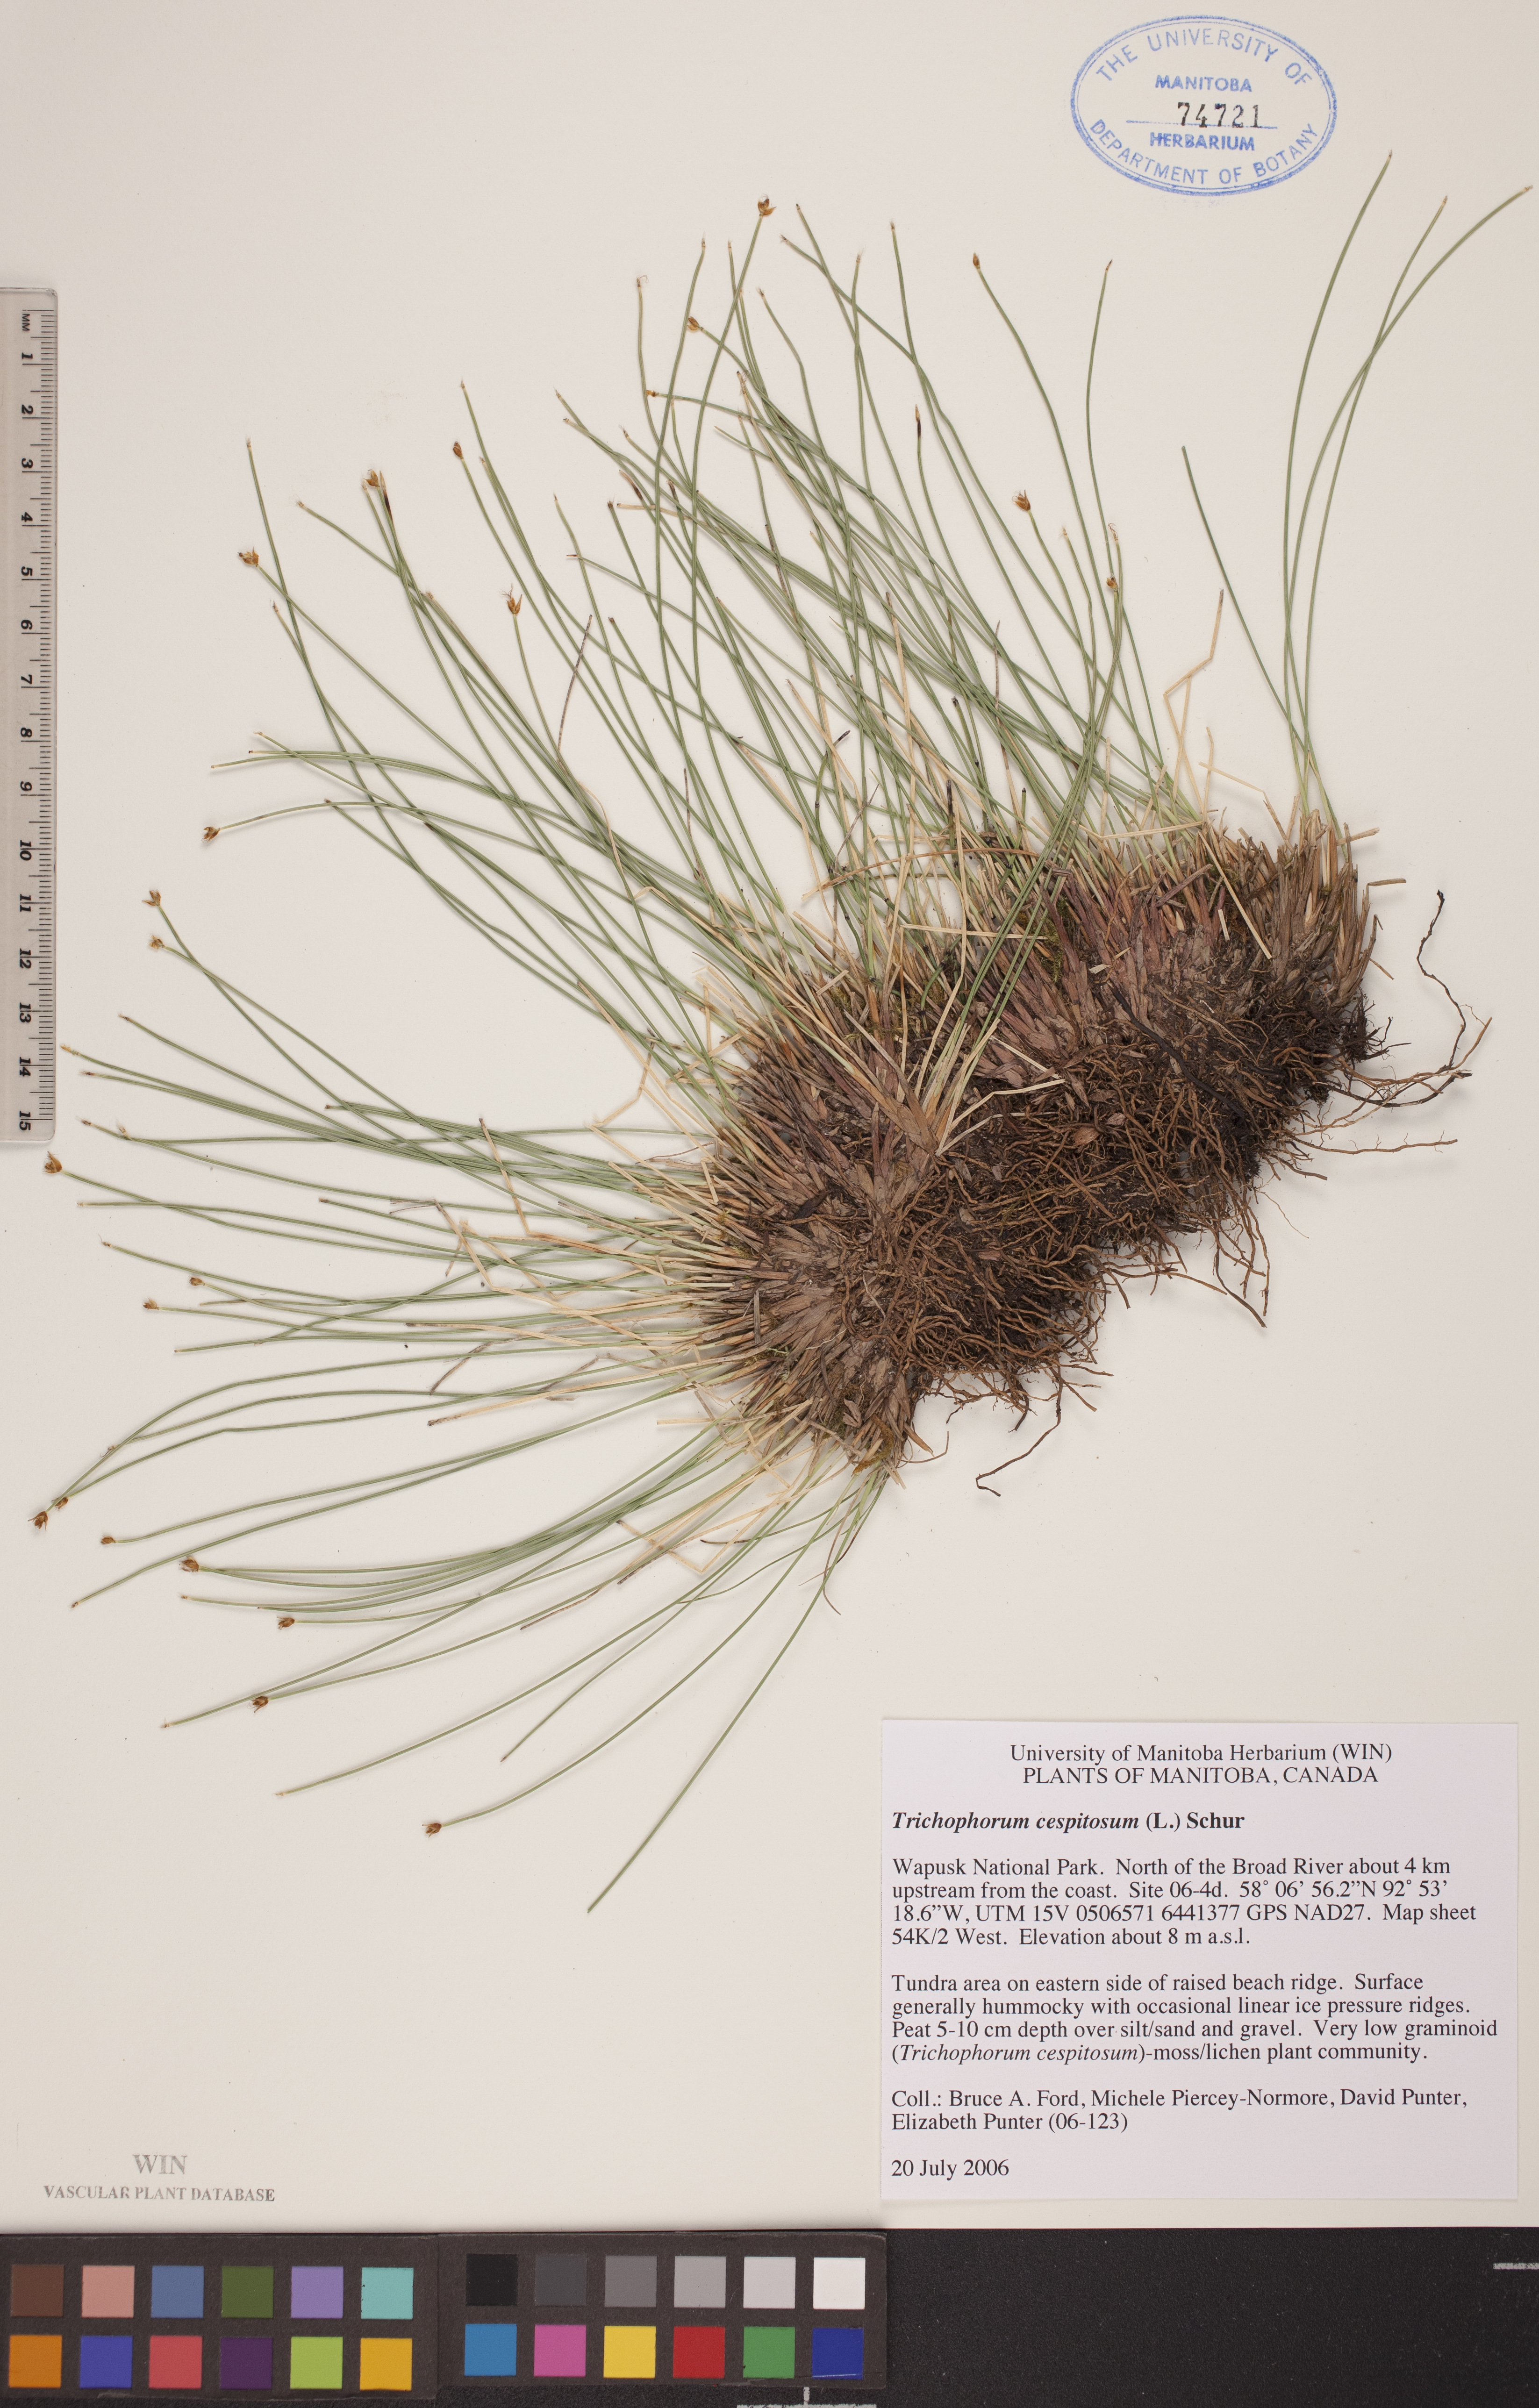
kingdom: Plantae
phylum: Tracheophyta
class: Liliopsida
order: Poales
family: Cyperaceae
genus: Trichophorum
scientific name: Trichophorum cespitosum
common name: Cespitose bulrush
